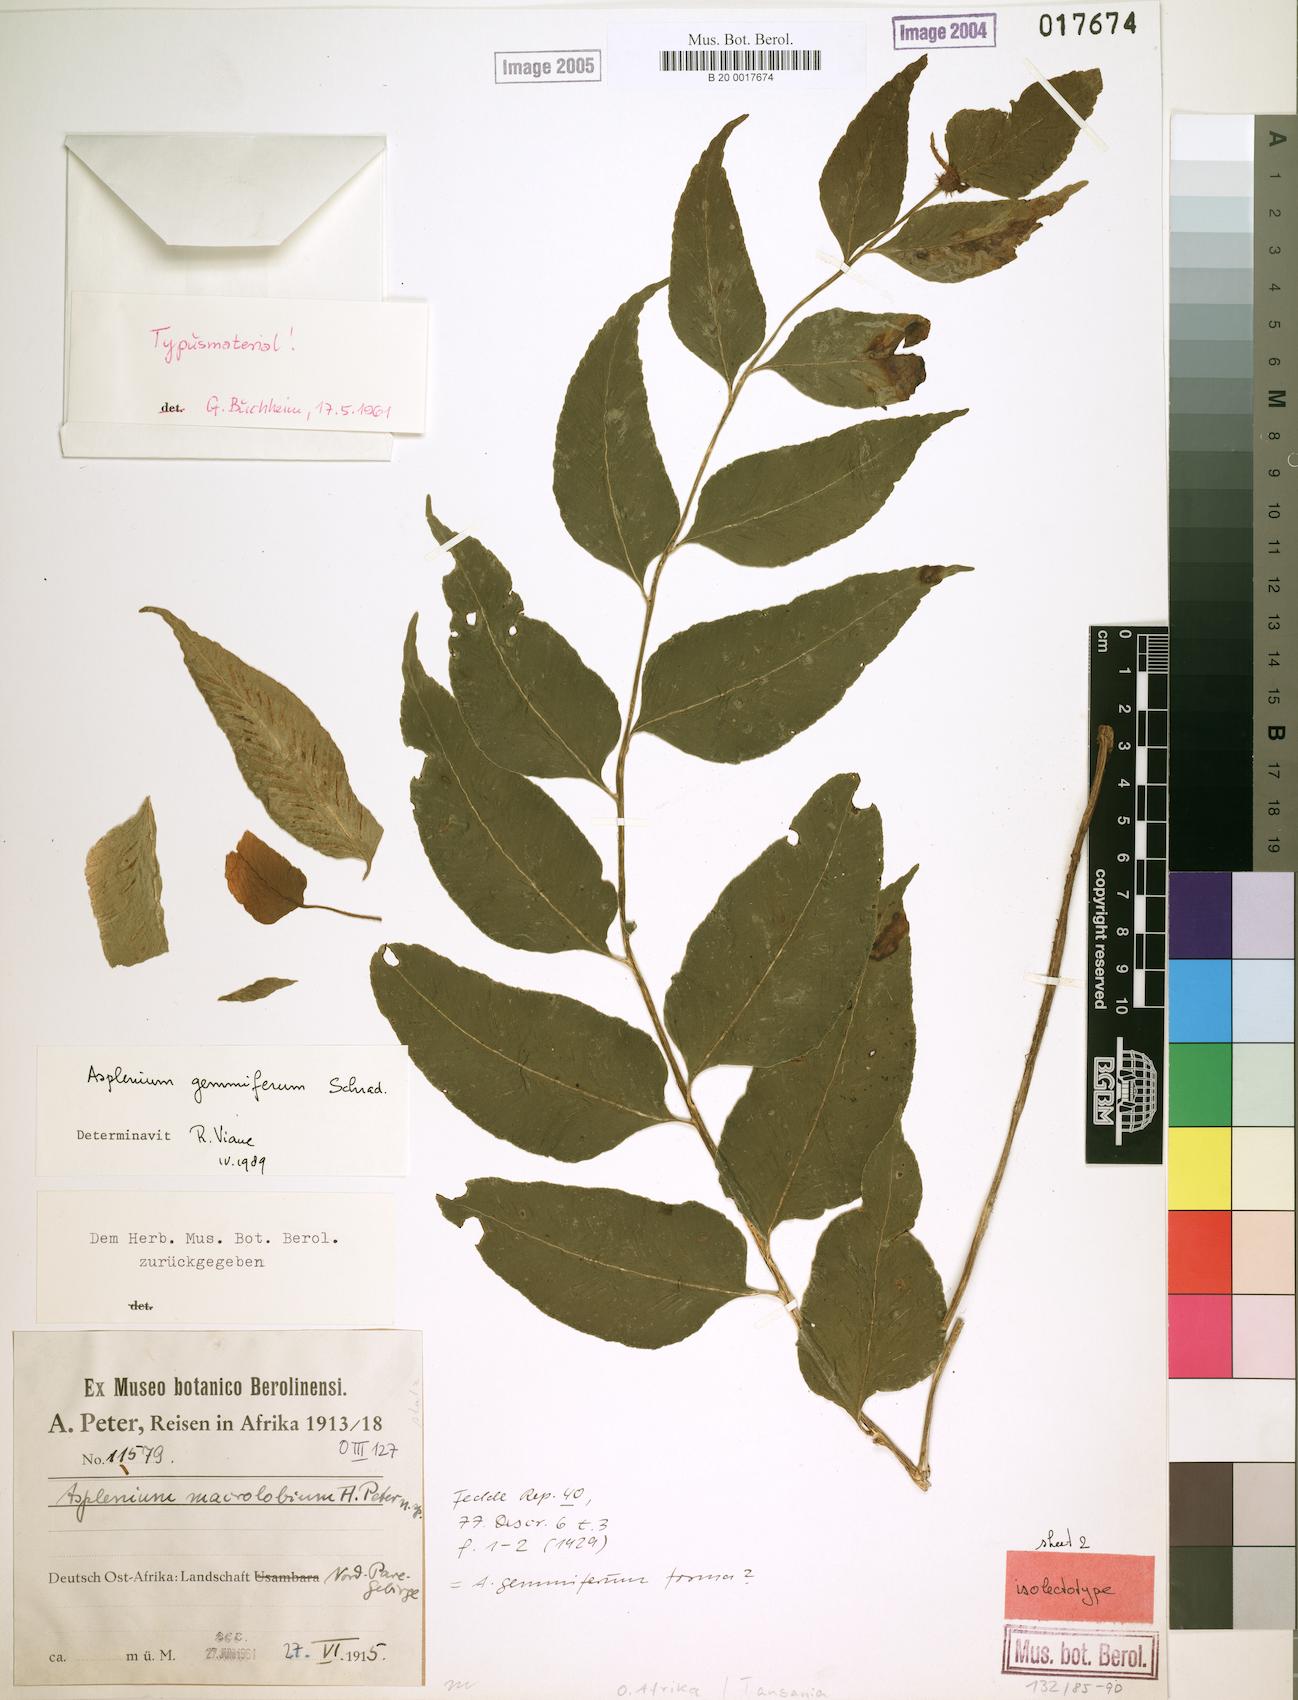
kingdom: Plantae
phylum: Tracheophyta
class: Polypodiopsida
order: Polypodiales
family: Aspleniaceae
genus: Asplenium
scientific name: Asplenium gemmiferum
